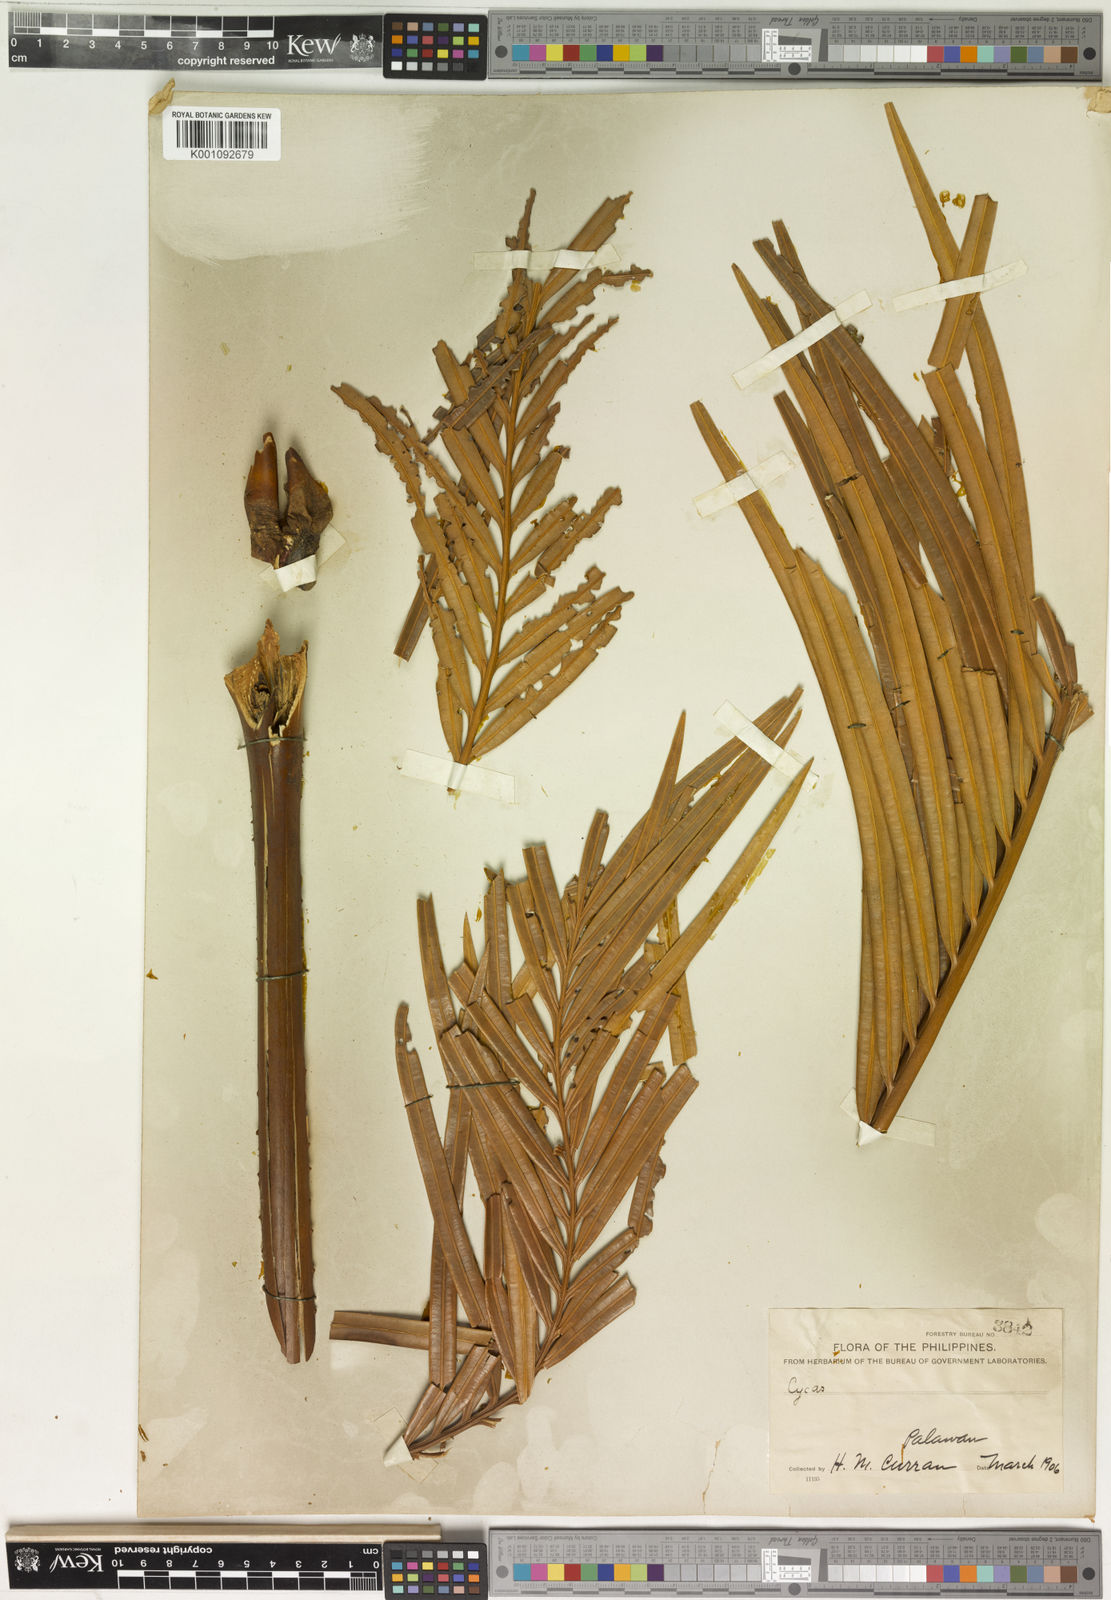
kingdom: Plantae
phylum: Tracheophyta
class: Cycadopsida
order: Cycadales
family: Cycadaceae
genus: Cycas
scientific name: Cycas circinalis
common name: Queen sago
